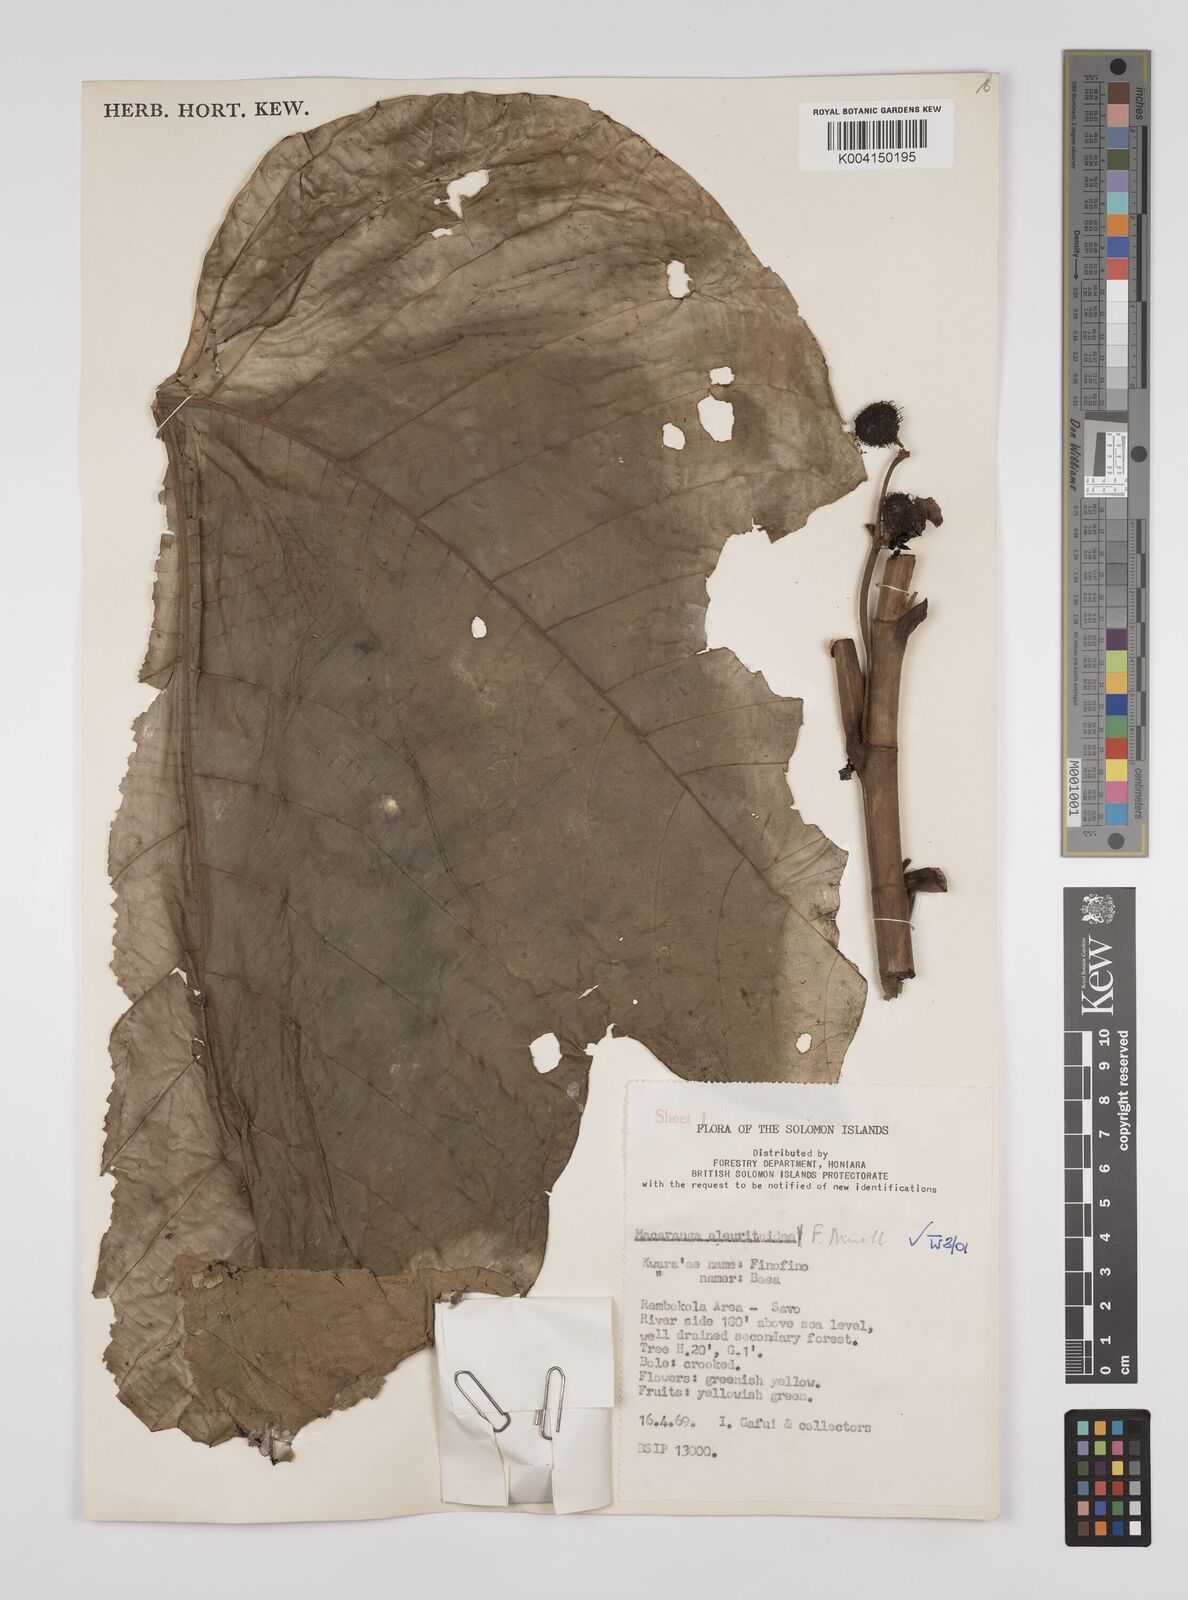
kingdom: Plantae
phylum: Tracheophyta
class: Magnoliopsida
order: Malpighiales
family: Euphorbiaceae
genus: Macaranga
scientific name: Macaranga aleuritoides
